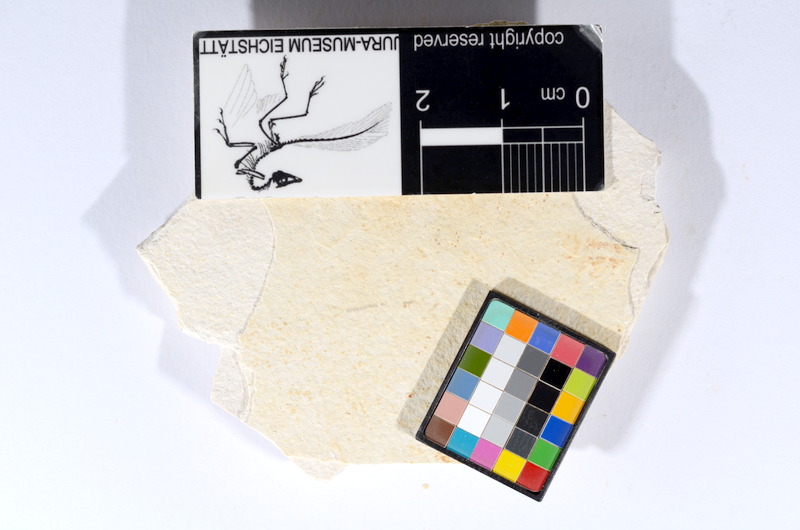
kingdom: Animalia
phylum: Chordata
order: Salmoniformes
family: Orthogonikleithridae
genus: Orthogonikleithrus
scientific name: Orthogonikleithrus hoelli
